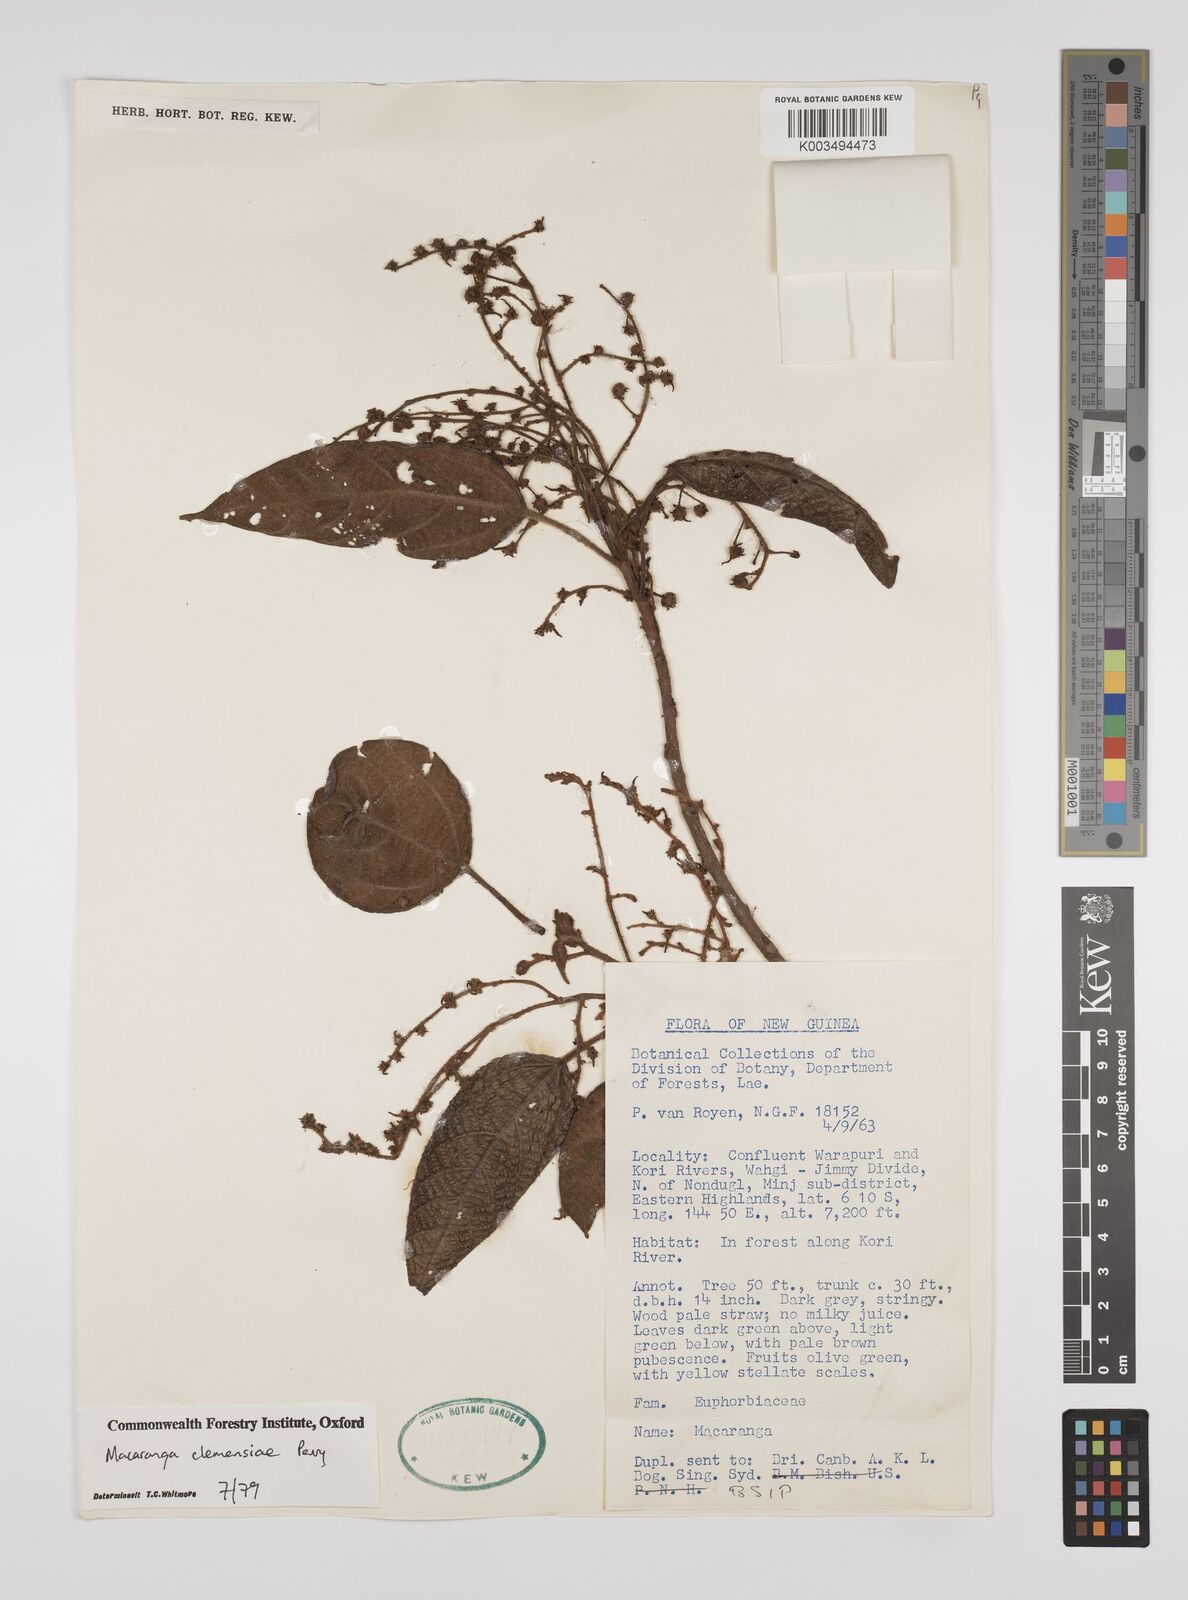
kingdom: Plantae
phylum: Tracheophyta
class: Magnoliopsida
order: Malpighiales
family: Euphorbiaceae
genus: Macaranga
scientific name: Macaranga clemensiae
